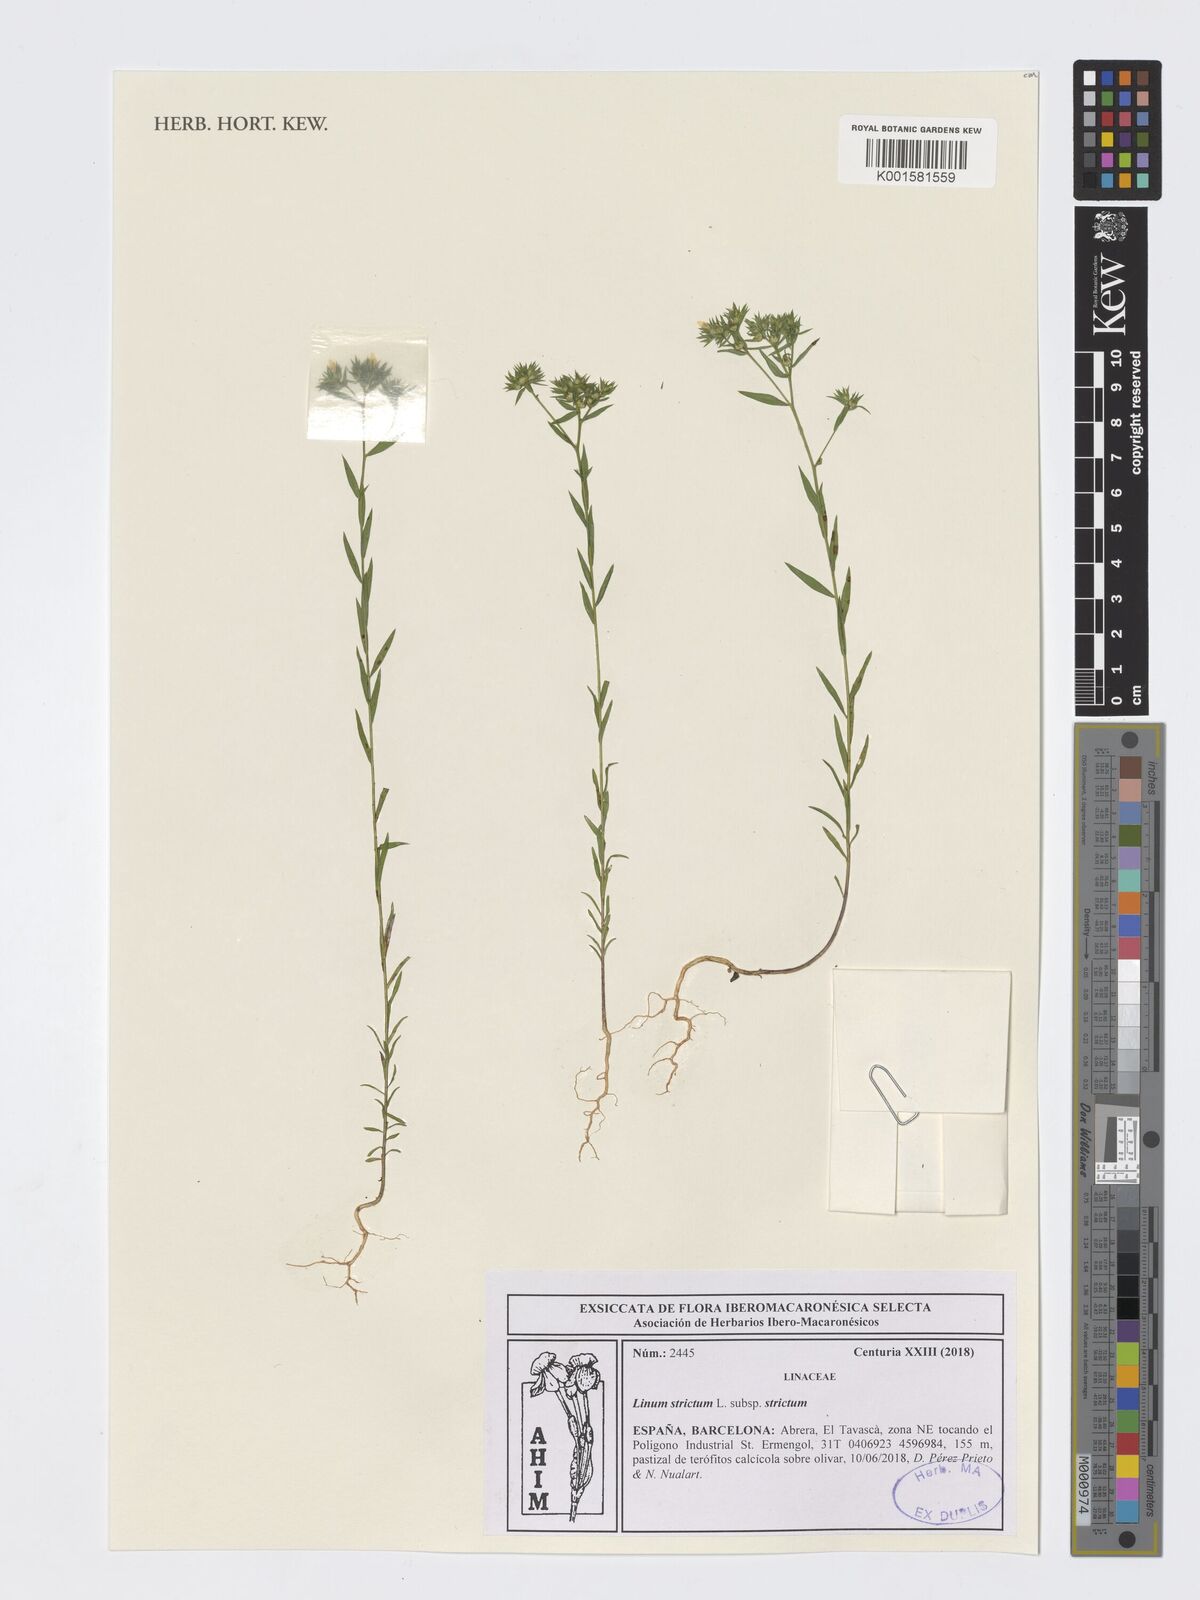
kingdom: Plantae
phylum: Tracheophyta
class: Magnoliopsida
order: Malpighiales
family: Linaceae
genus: Linum
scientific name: Linum strictum
